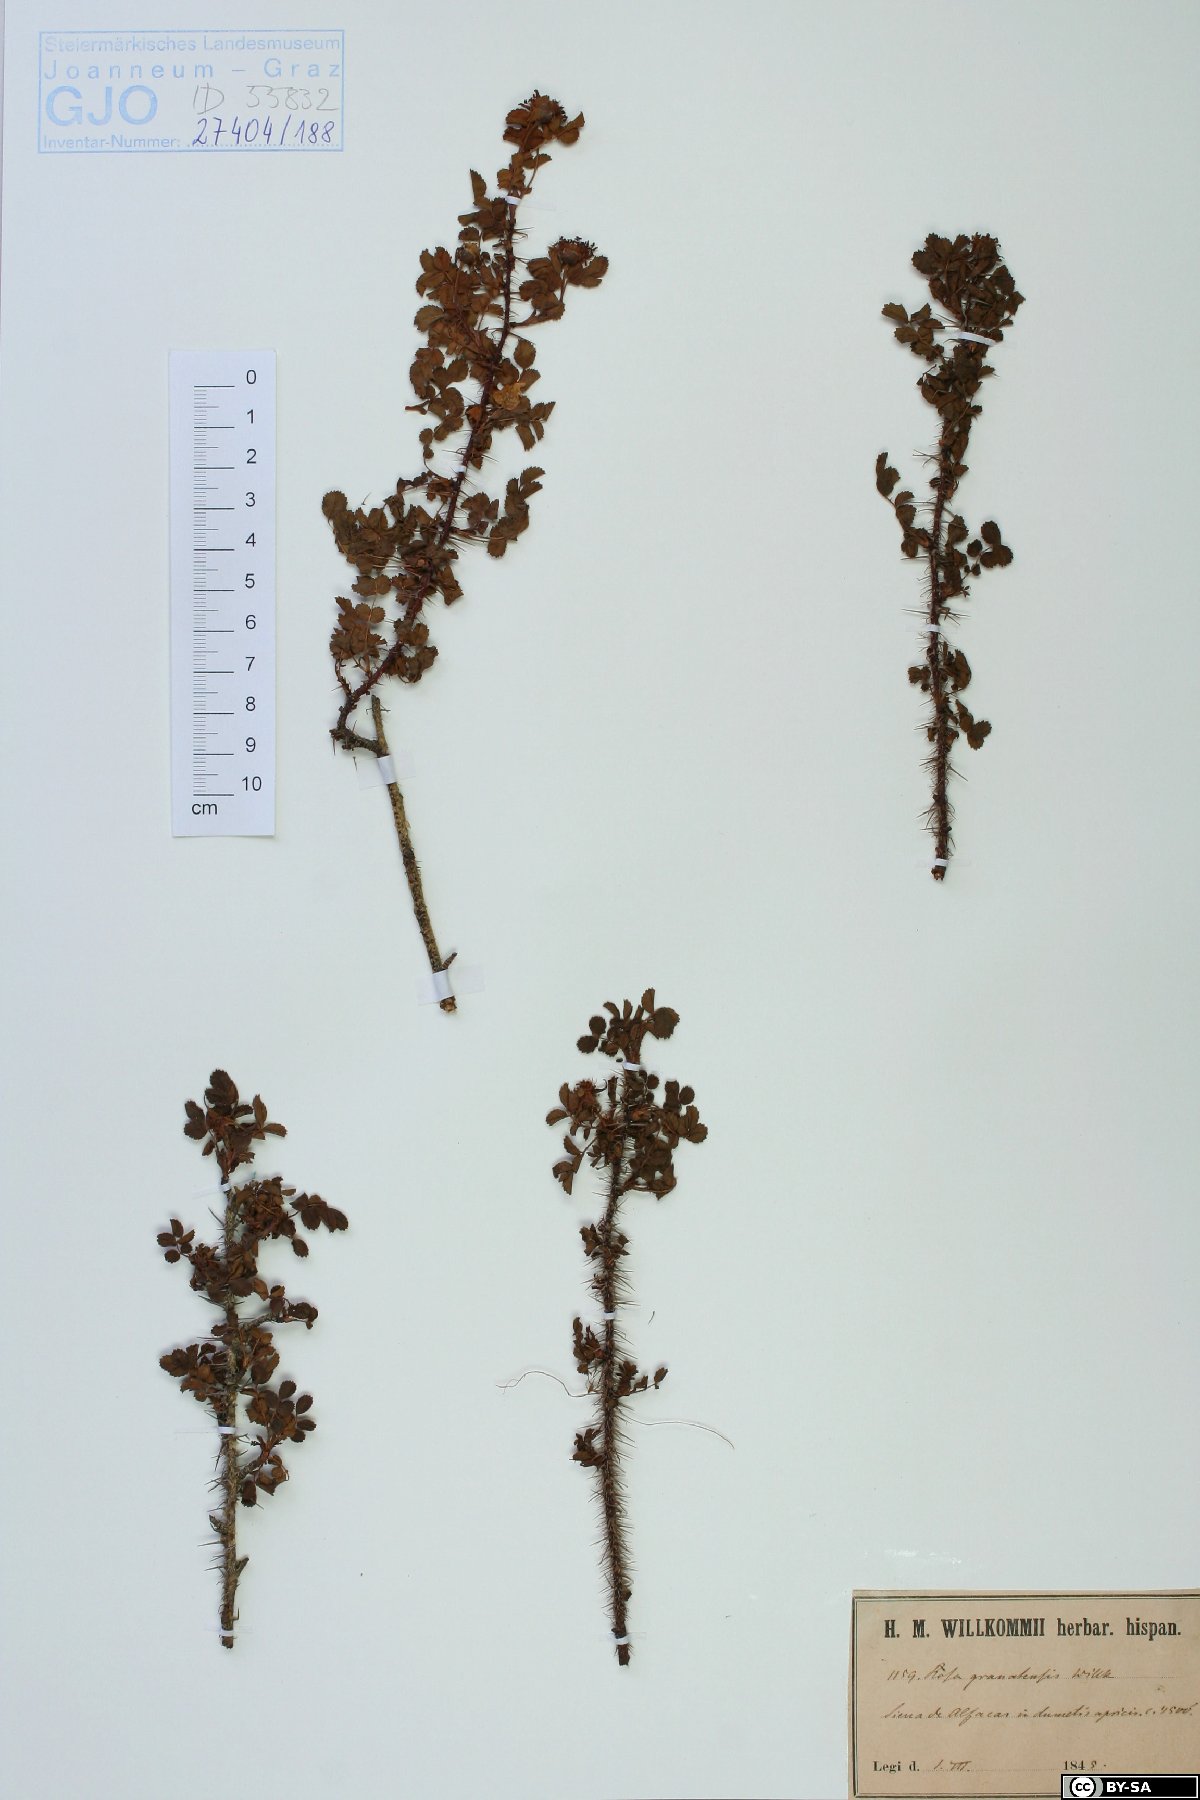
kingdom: Plantae
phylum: Tracheophyta
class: Magnoliopsida
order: Rosales
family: Rosaceae
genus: Rosa
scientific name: Rosa spinosissima
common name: Burnet rose
